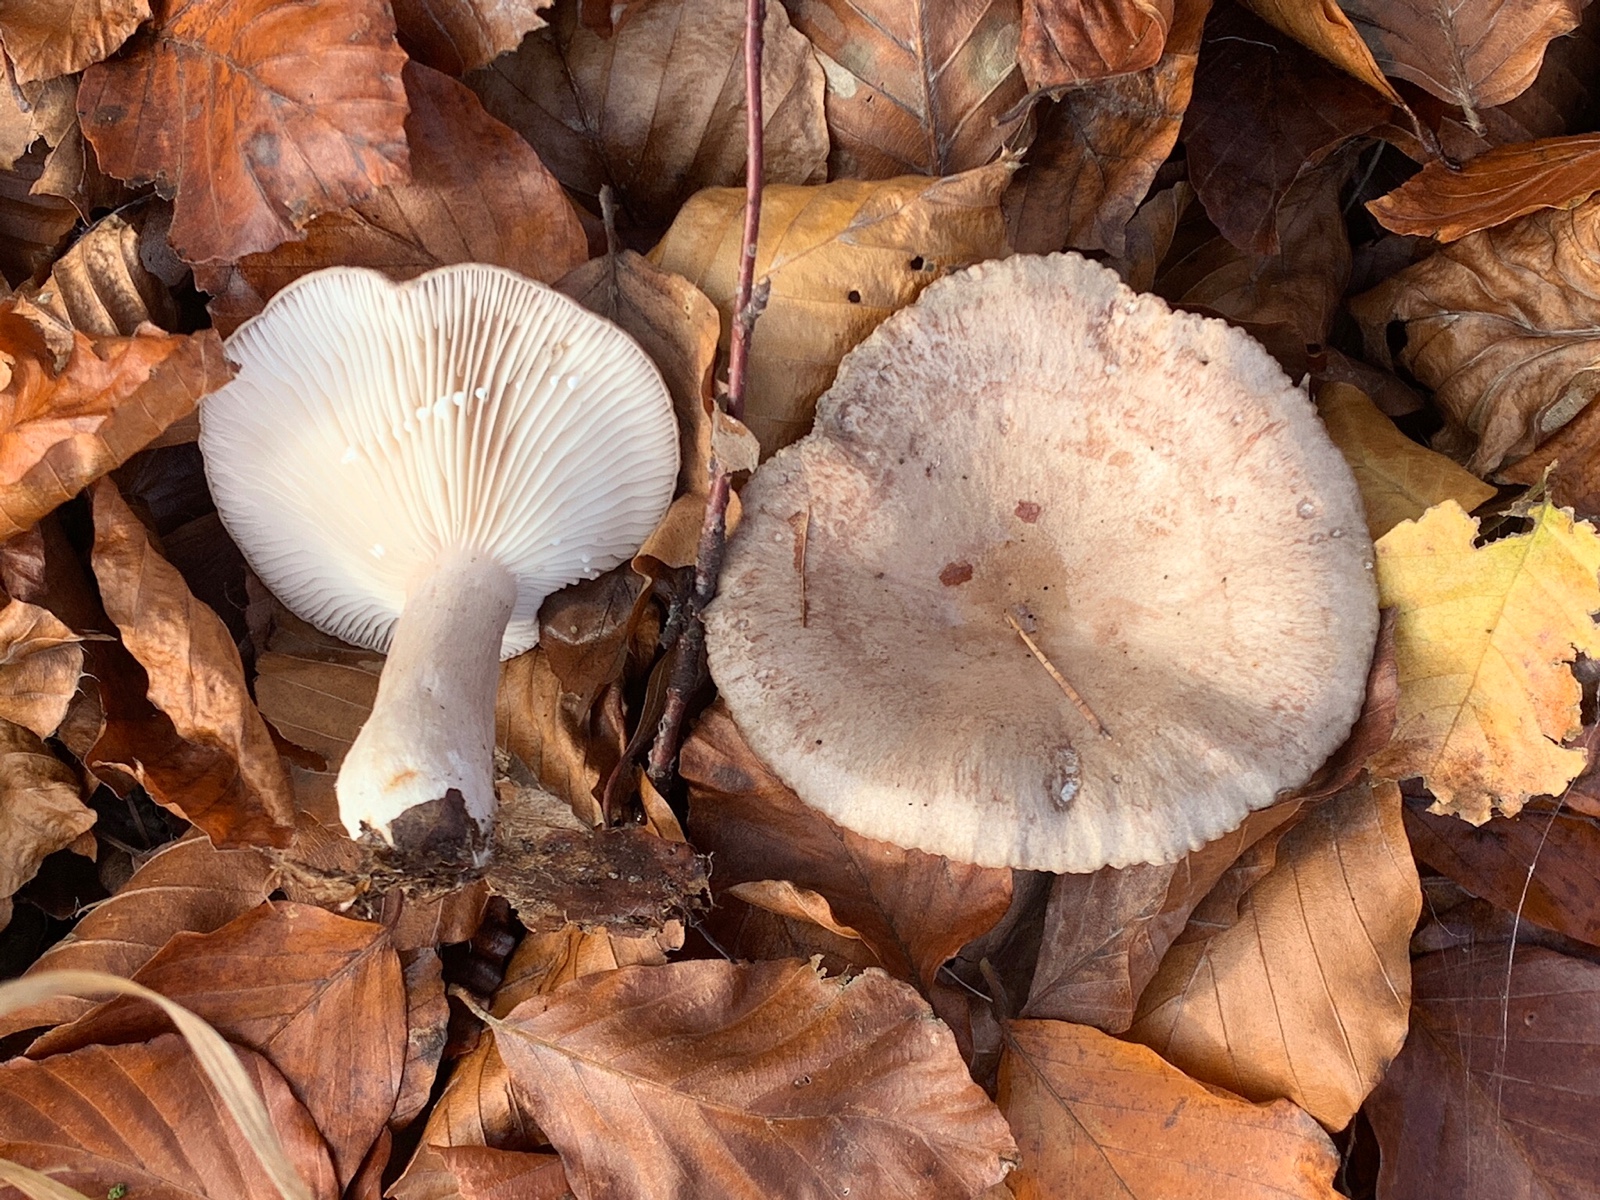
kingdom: Fungi
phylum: Basidiomycota
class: Agaricomycetes
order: Russulales
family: Russulaceae
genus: Lactarius
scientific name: Lactarius blennius
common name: dråbeplettet mælkehat
